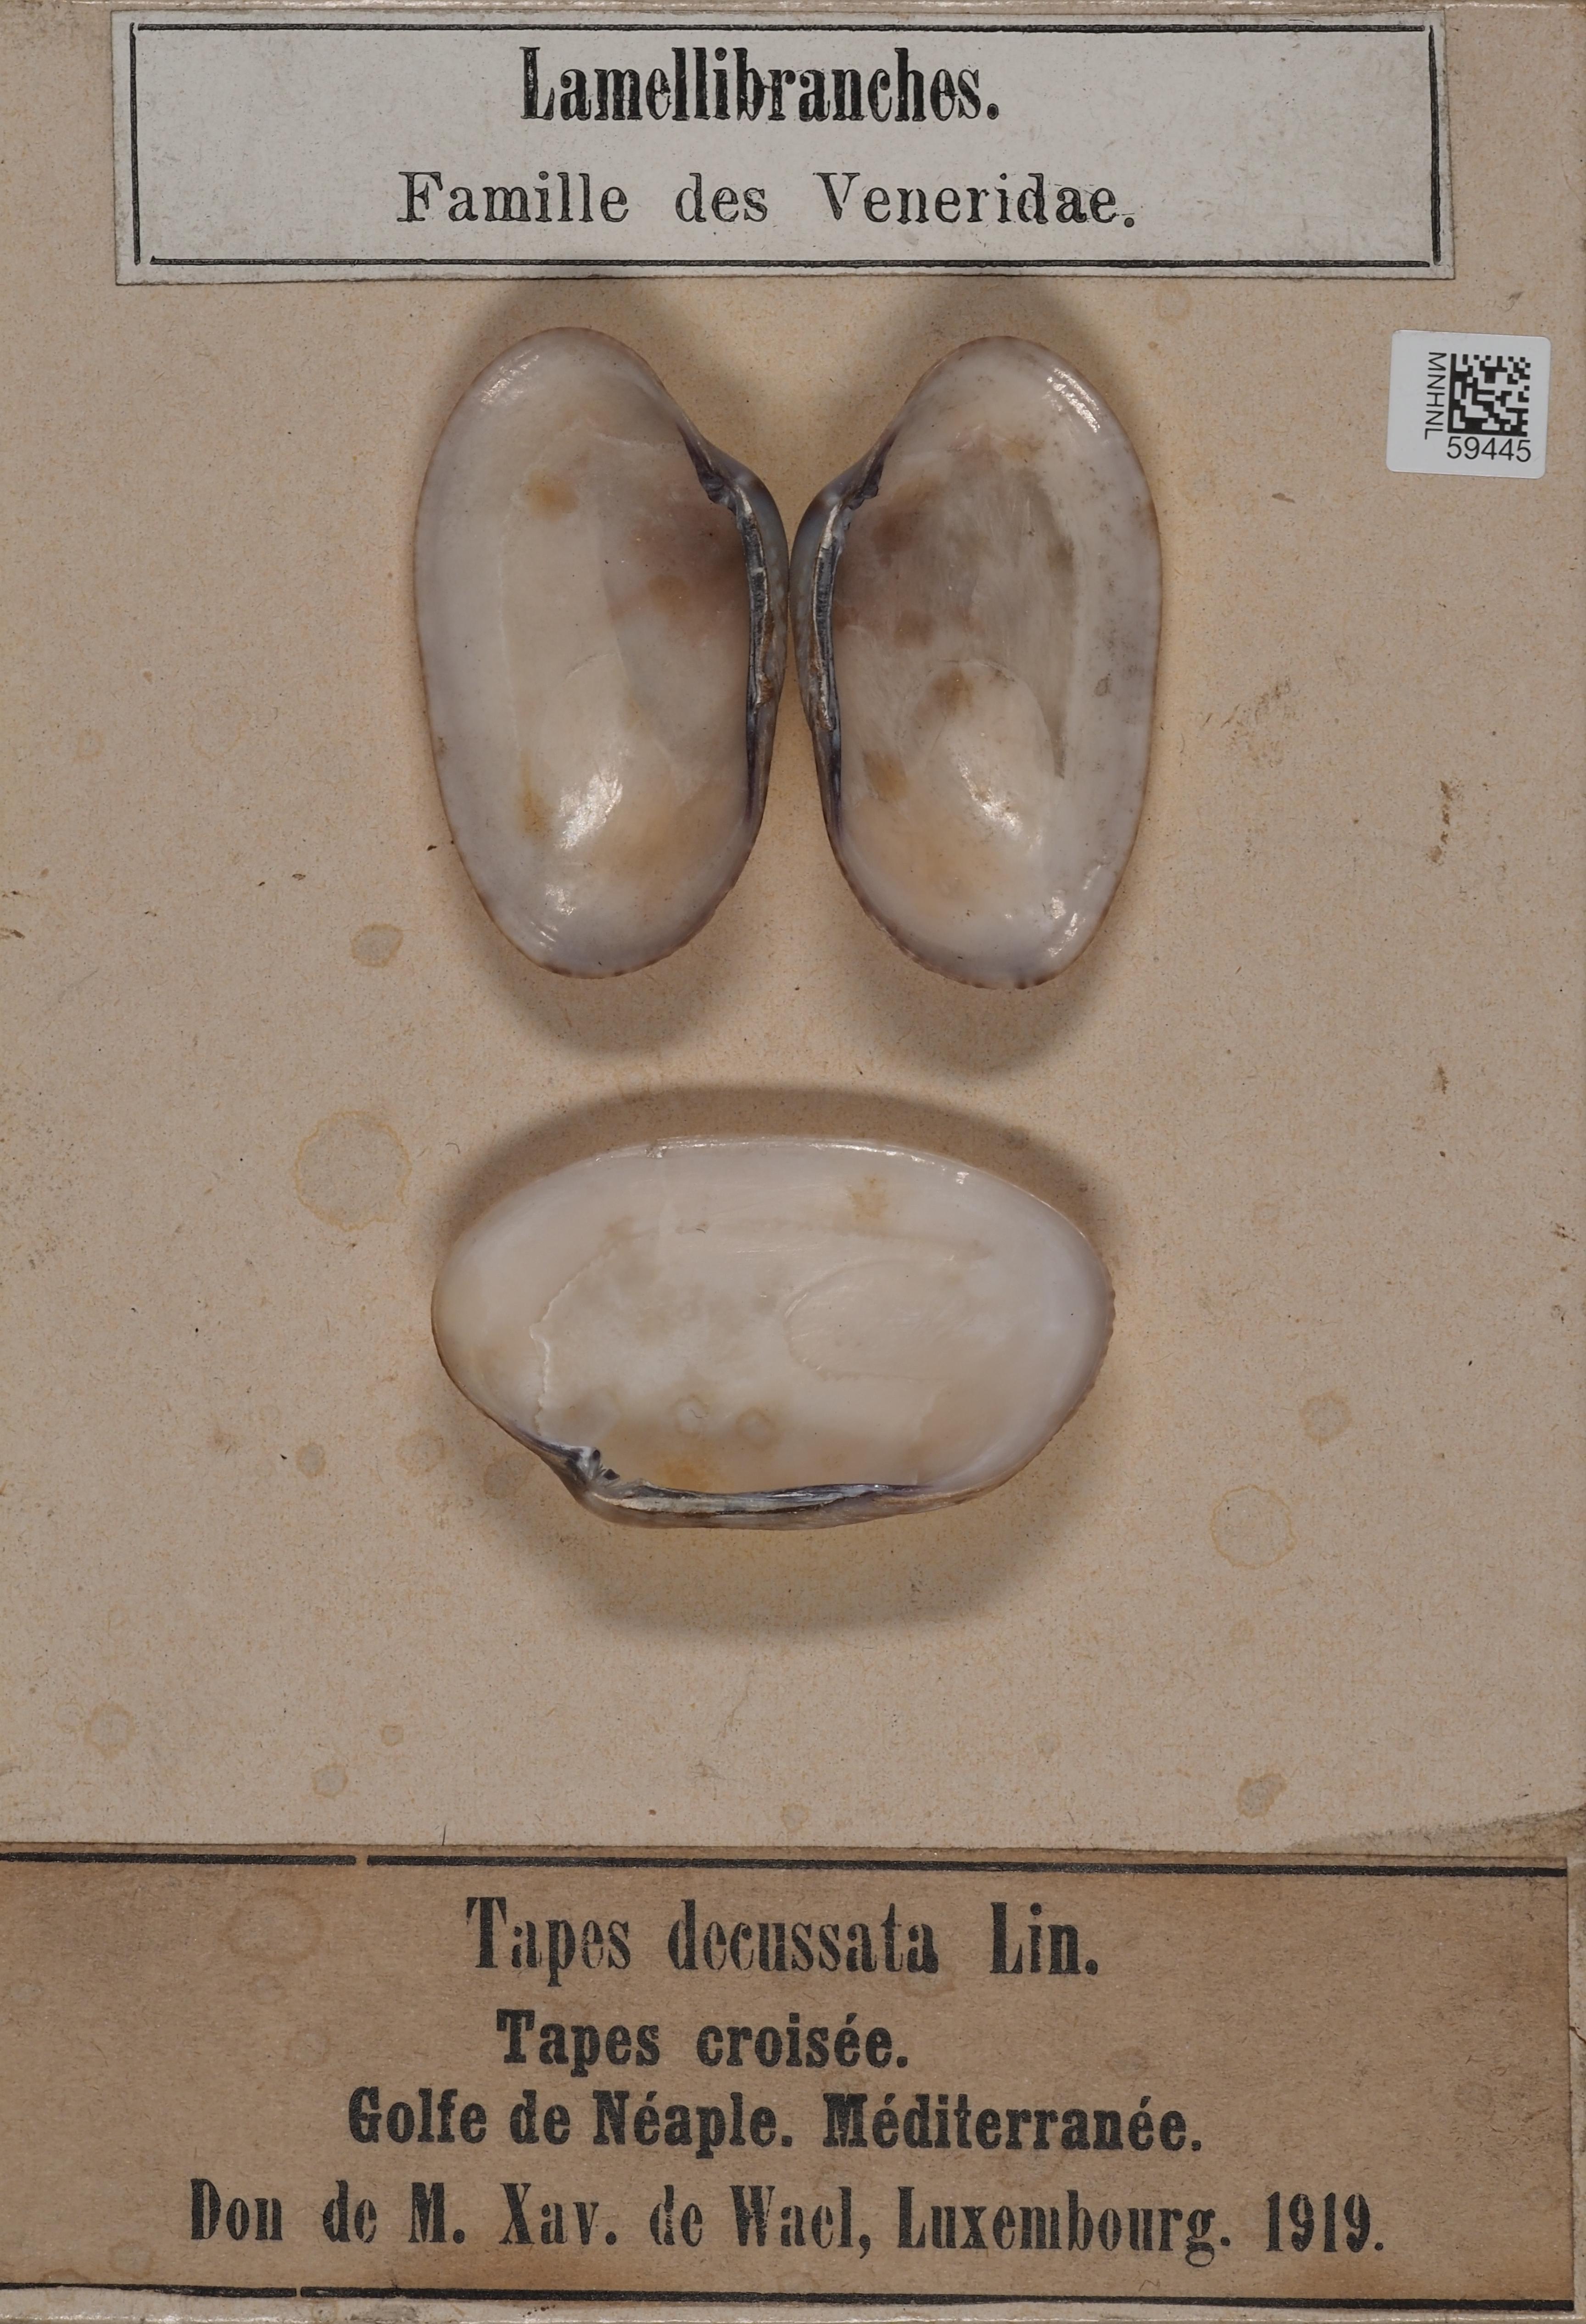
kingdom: Animalia
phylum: Mollusca
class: Bivalvia
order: Venerida
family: Veneridae
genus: Ruditapes
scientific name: Ruditapes decussatus
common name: Chequered carpet shell
